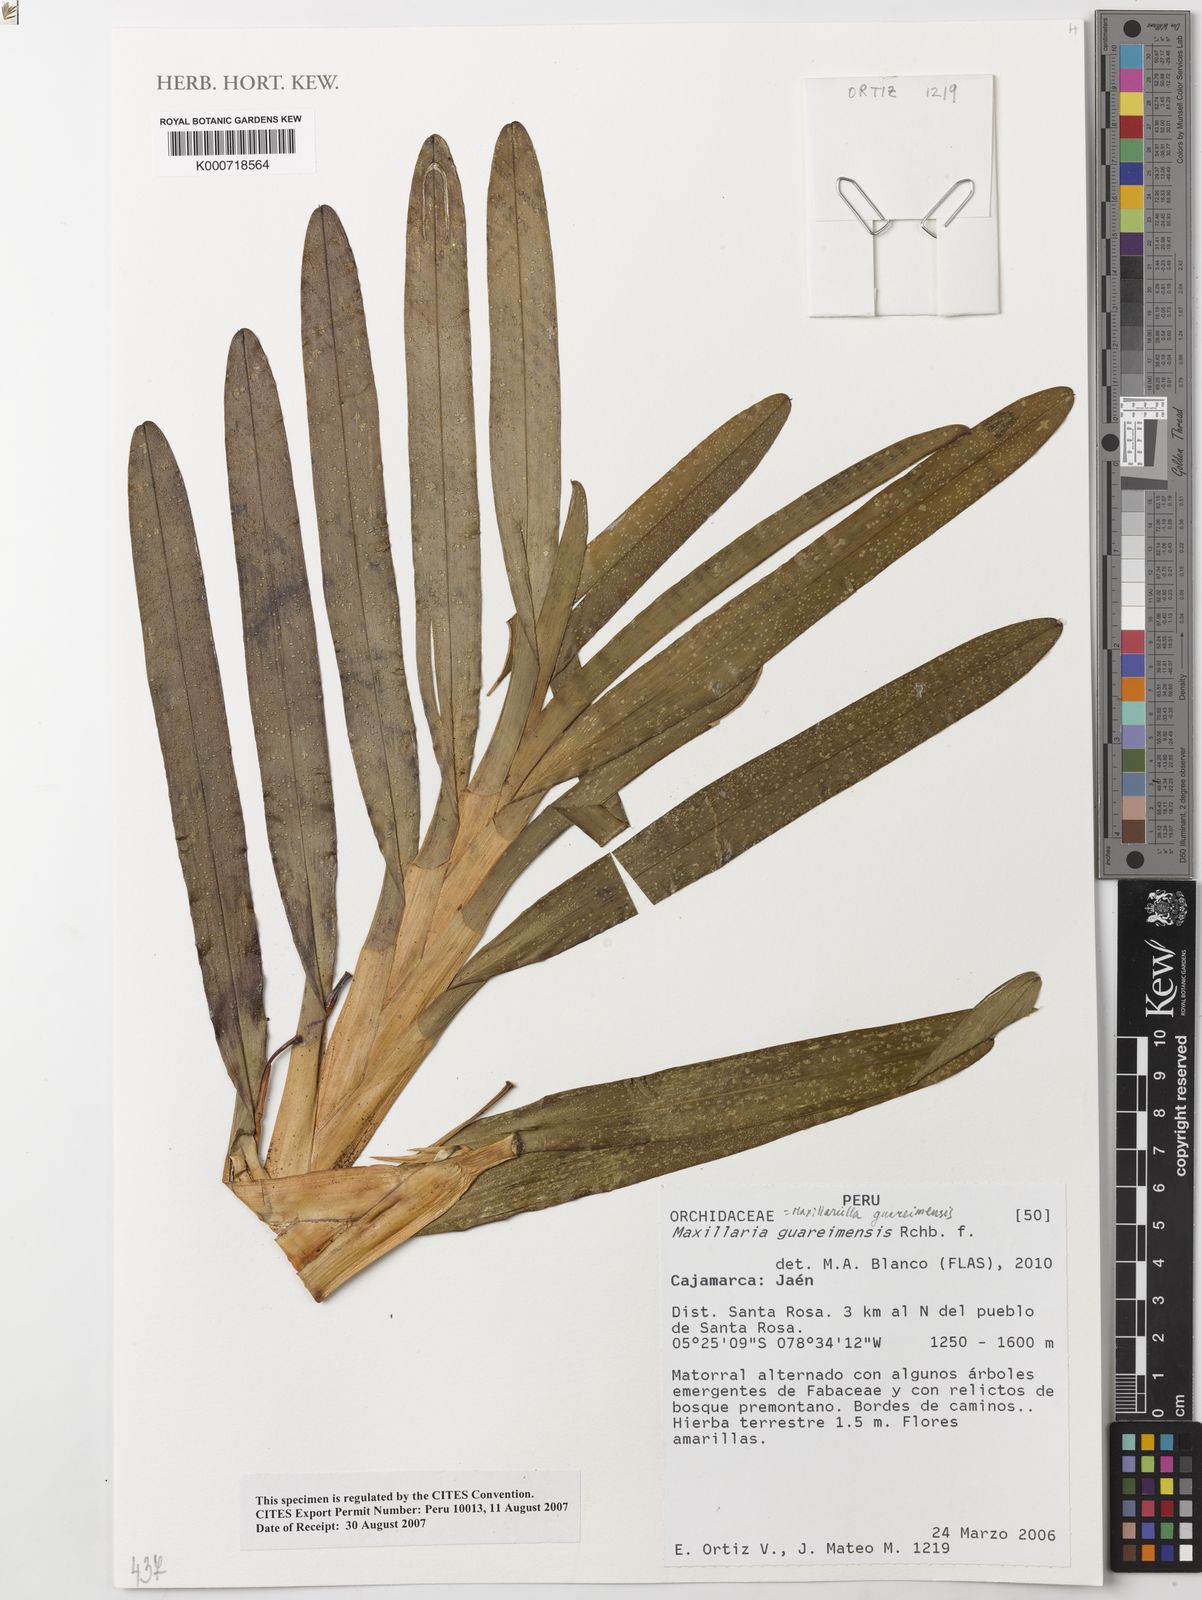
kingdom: Plantae
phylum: Tracheophyta
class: Liliopsida
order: Asparagales
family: Orchidaceae
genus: Maxillaria
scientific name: Maxillaria guareimensis
